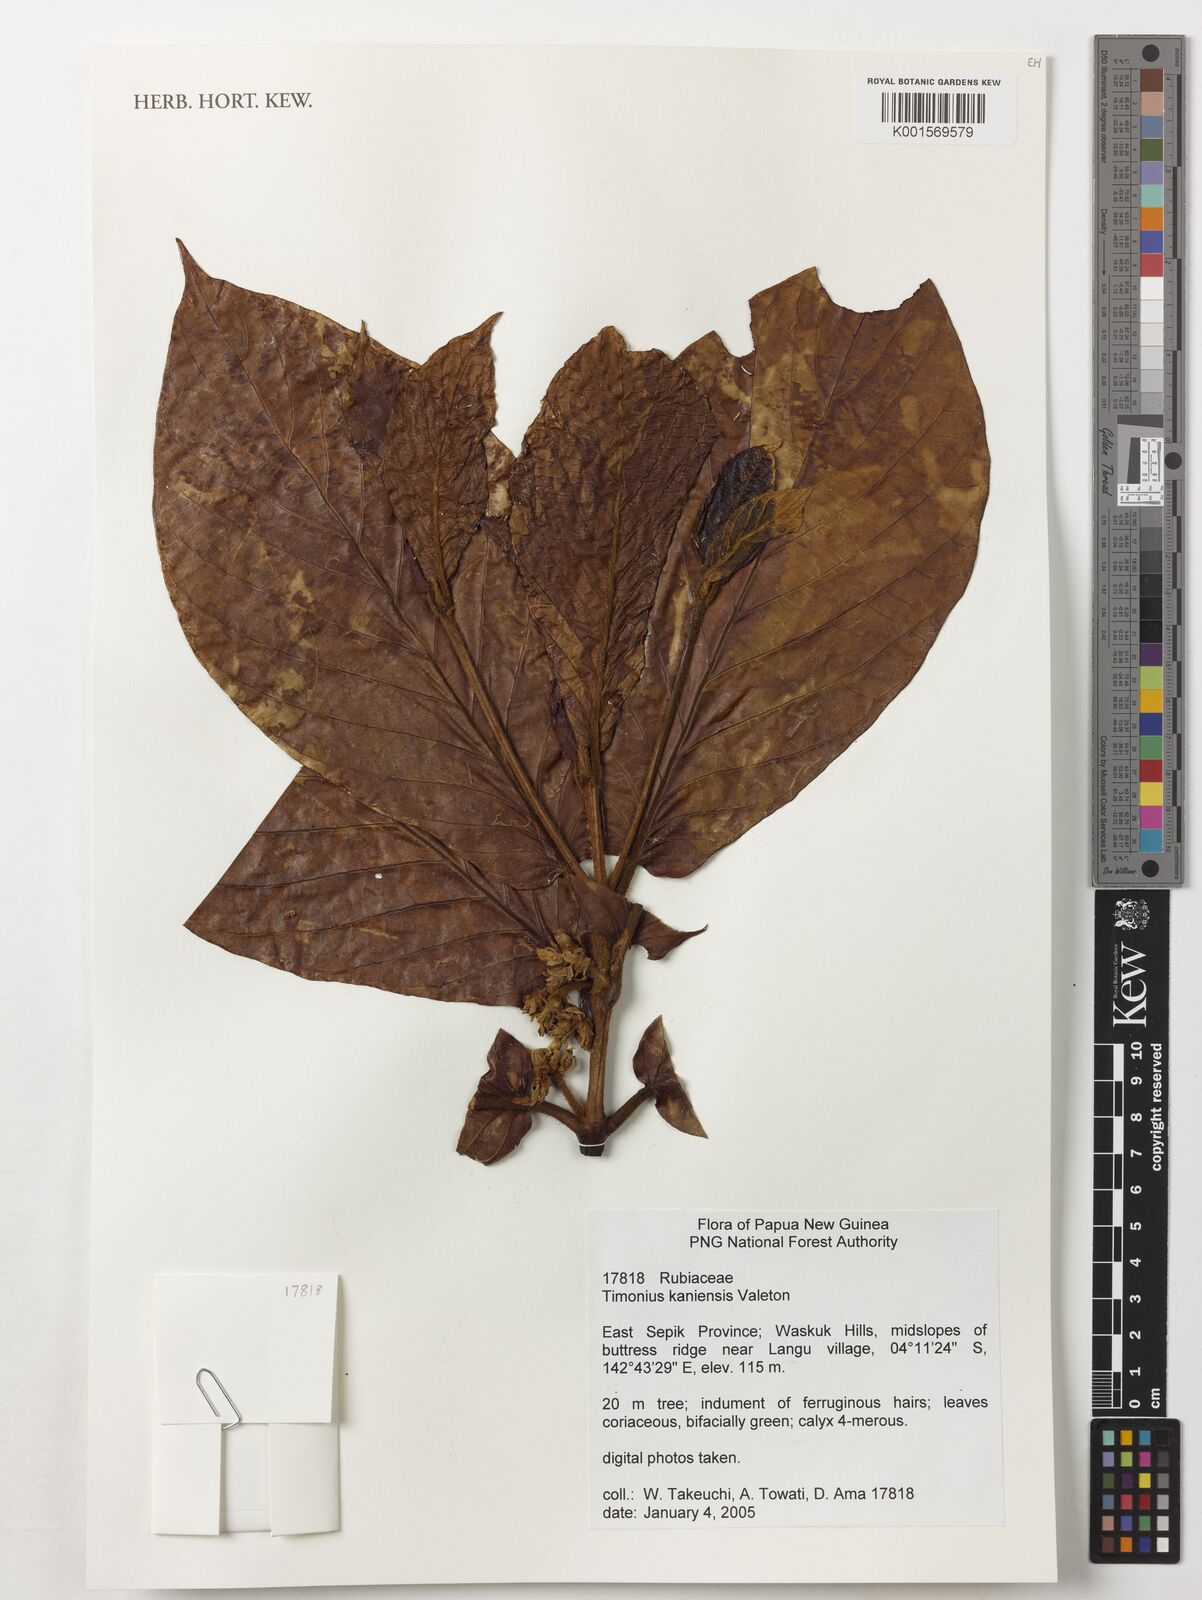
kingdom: Plantae
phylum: Tracheophyta
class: Magnoliopsida
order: Gentianales
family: Rubiaceae
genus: Timonius
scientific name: Timonius kaniensis
